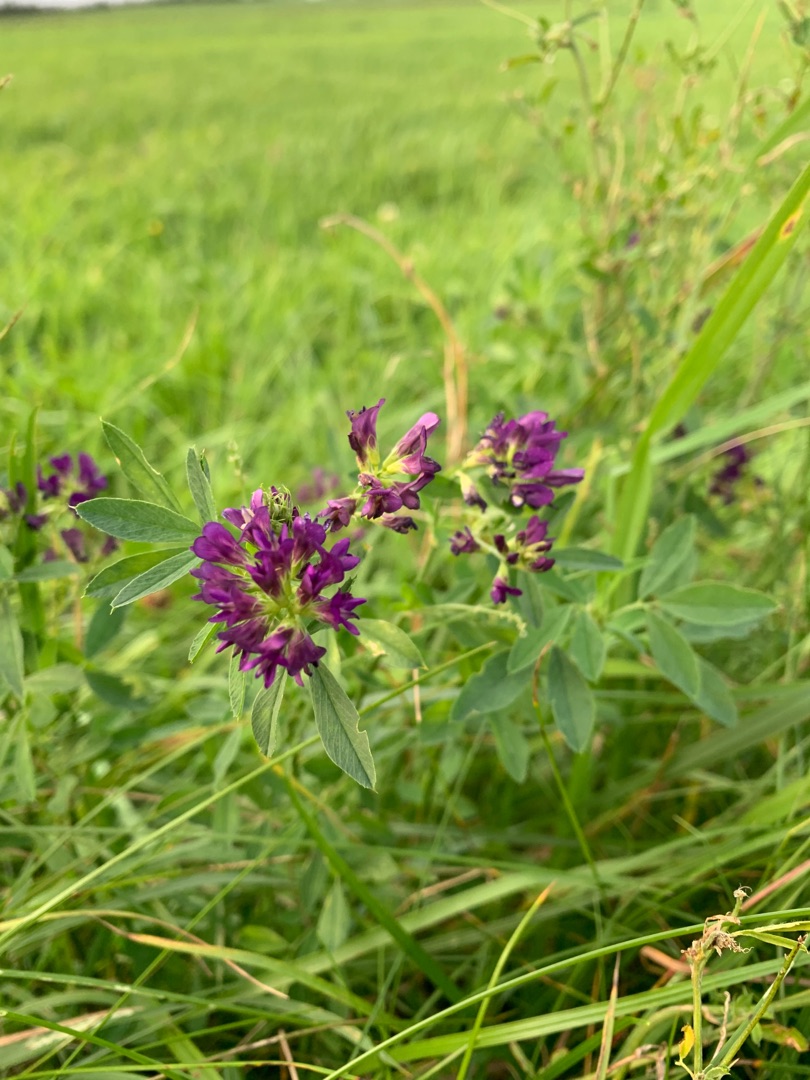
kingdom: Plantae
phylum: Tracheophyta
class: Magnoliopsida
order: Fabales
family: Fabaceae
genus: Medicago
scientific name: Medicago sativa
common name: Lucerne
